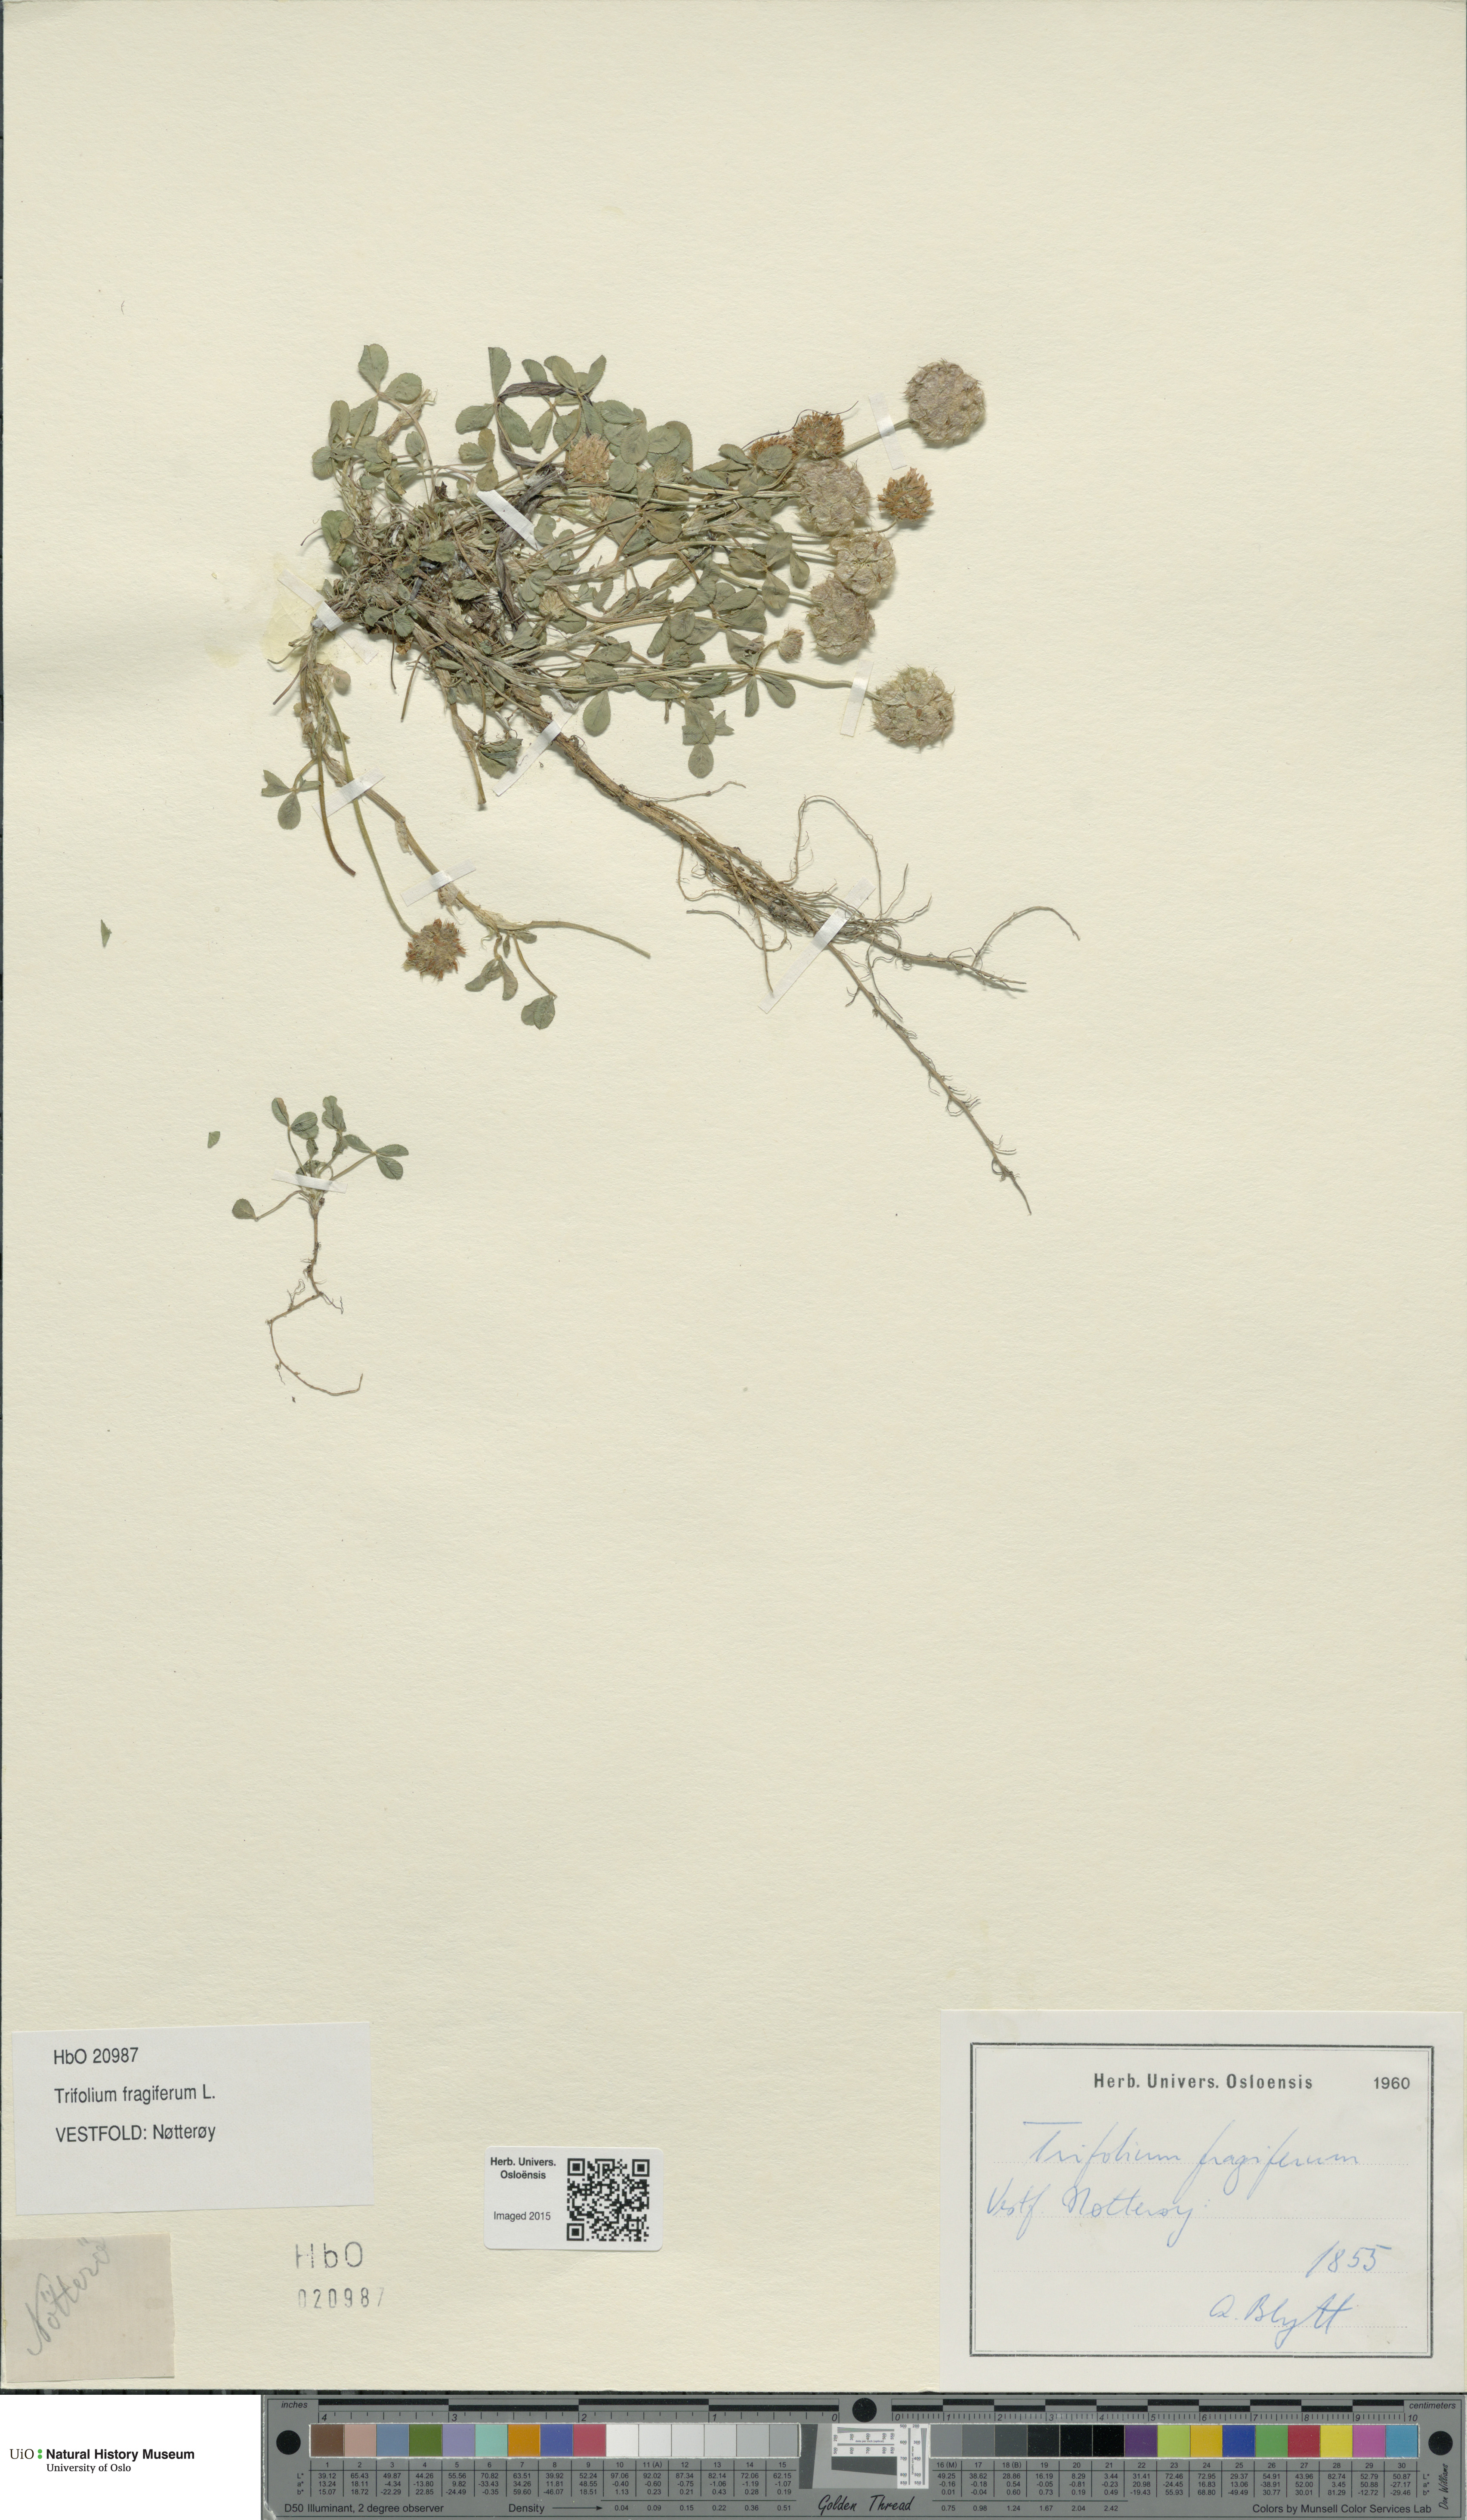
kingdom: Plantae
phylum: Tracheophyta
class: Magnoliopsida
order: Fabales
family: Fabaceae
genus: Trifolium
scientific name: Trifolium fragiferum
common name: Strawberry clover
